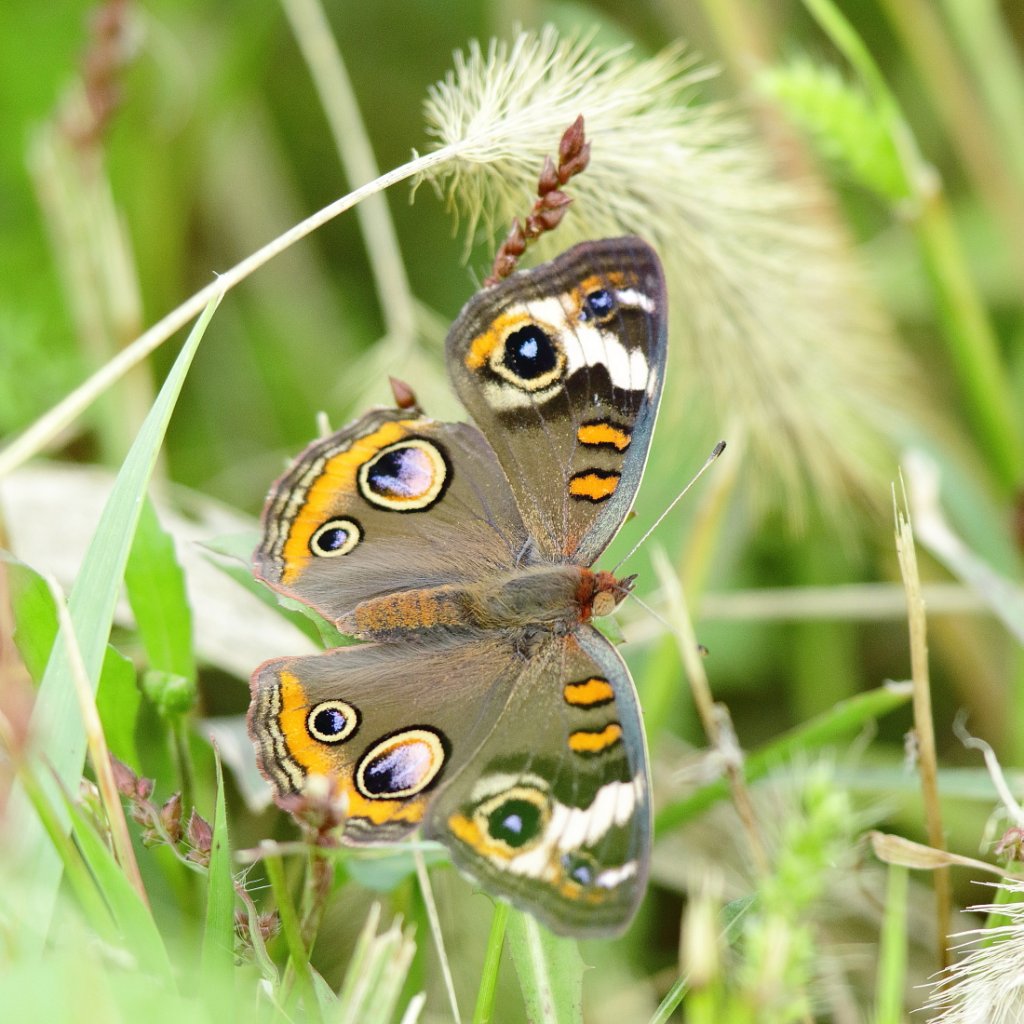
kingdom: Animalia
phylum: Arthropoda
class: Insecta
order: Lepidoptera
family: Nymphalidae
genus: Junonia
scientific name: Junonia coenia
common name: Common Buckeye
